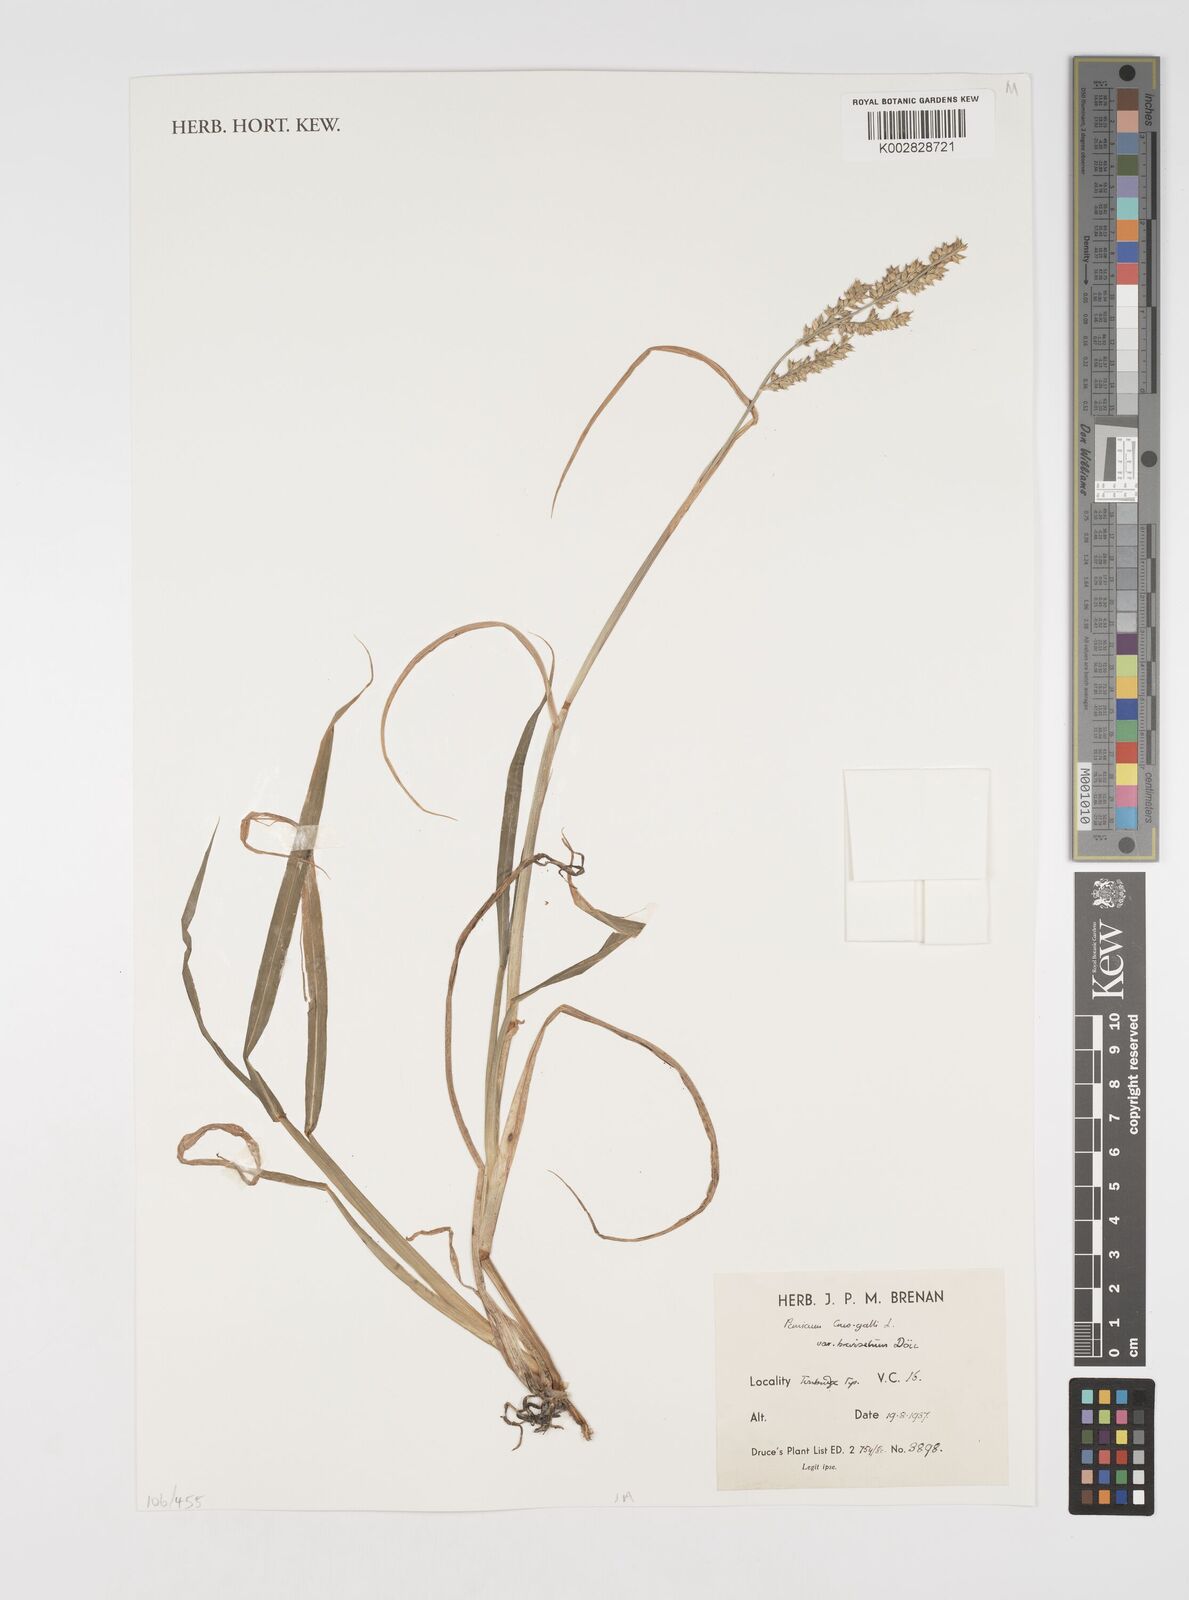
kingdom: Plantae
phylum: Tracheophyta
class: Liliopsida
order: Poales
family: Poaceae
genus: Echinochloa
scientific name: Echinochloa crus-galli
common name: Cockspur
